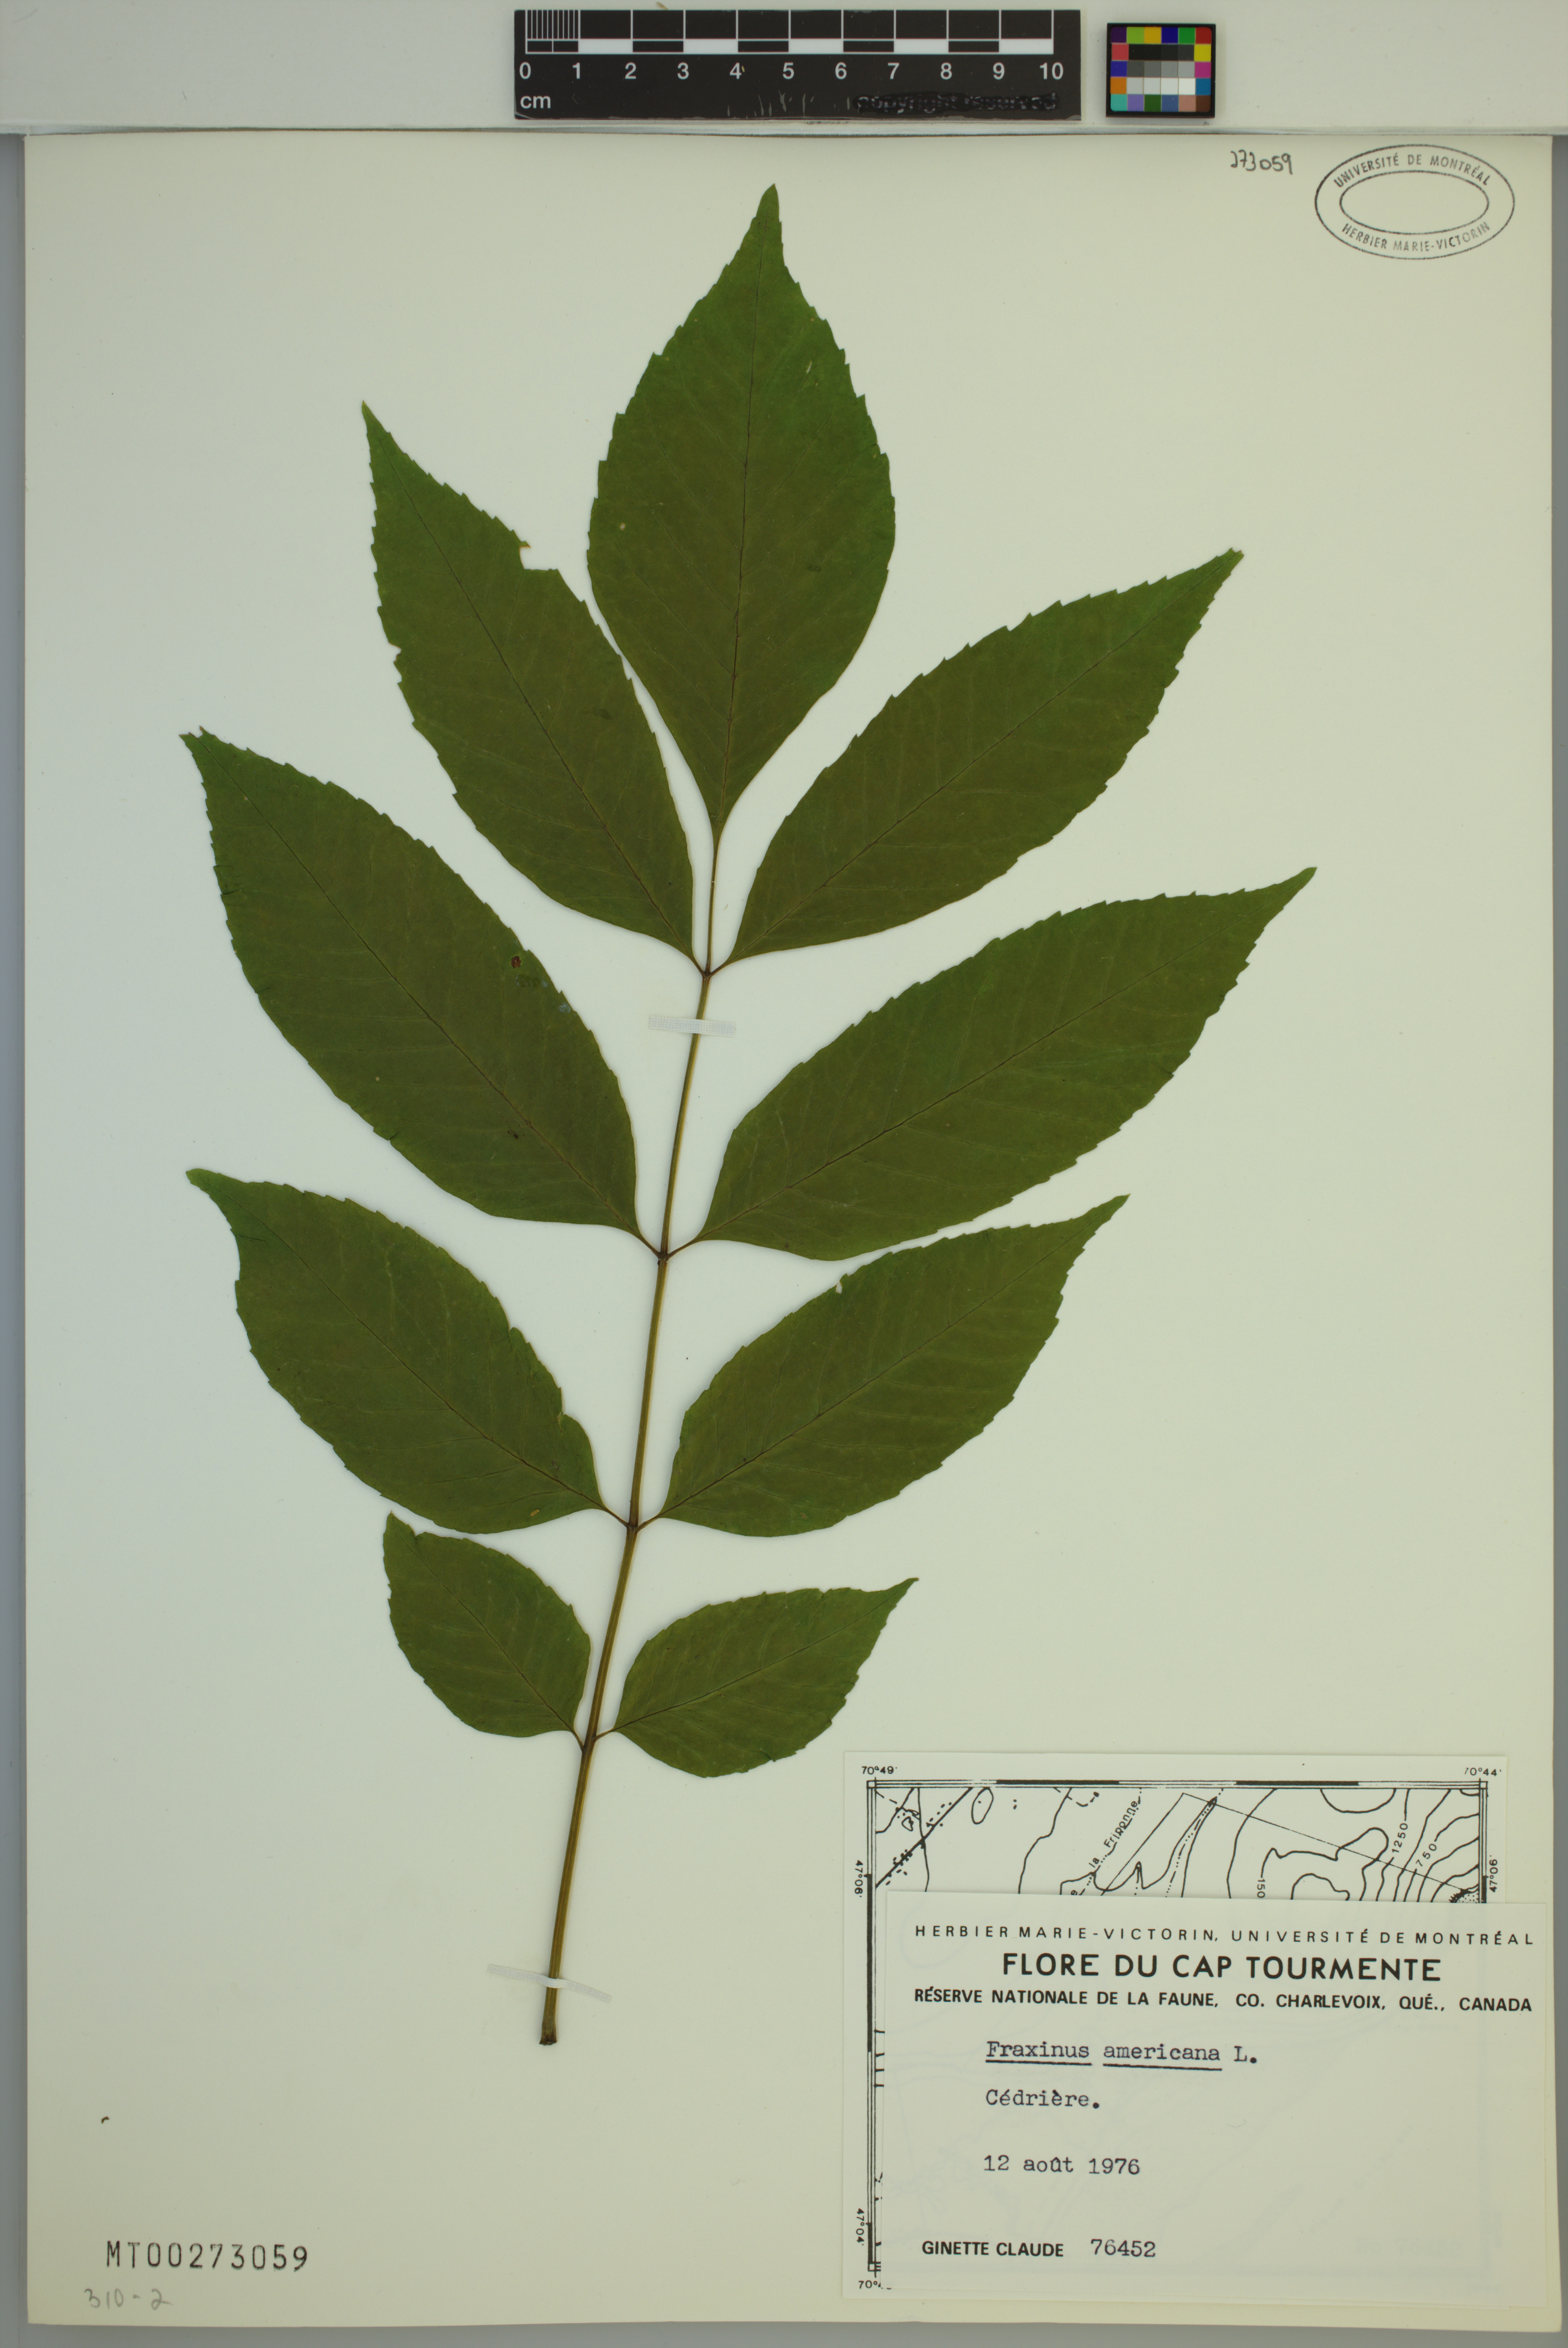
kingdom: Plantae
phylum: Tracheophyta
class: Magnoliopsida
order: Lamiales
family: Oleaceae
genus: Fraxinus
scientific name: Fraxinus americana
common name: White ash
